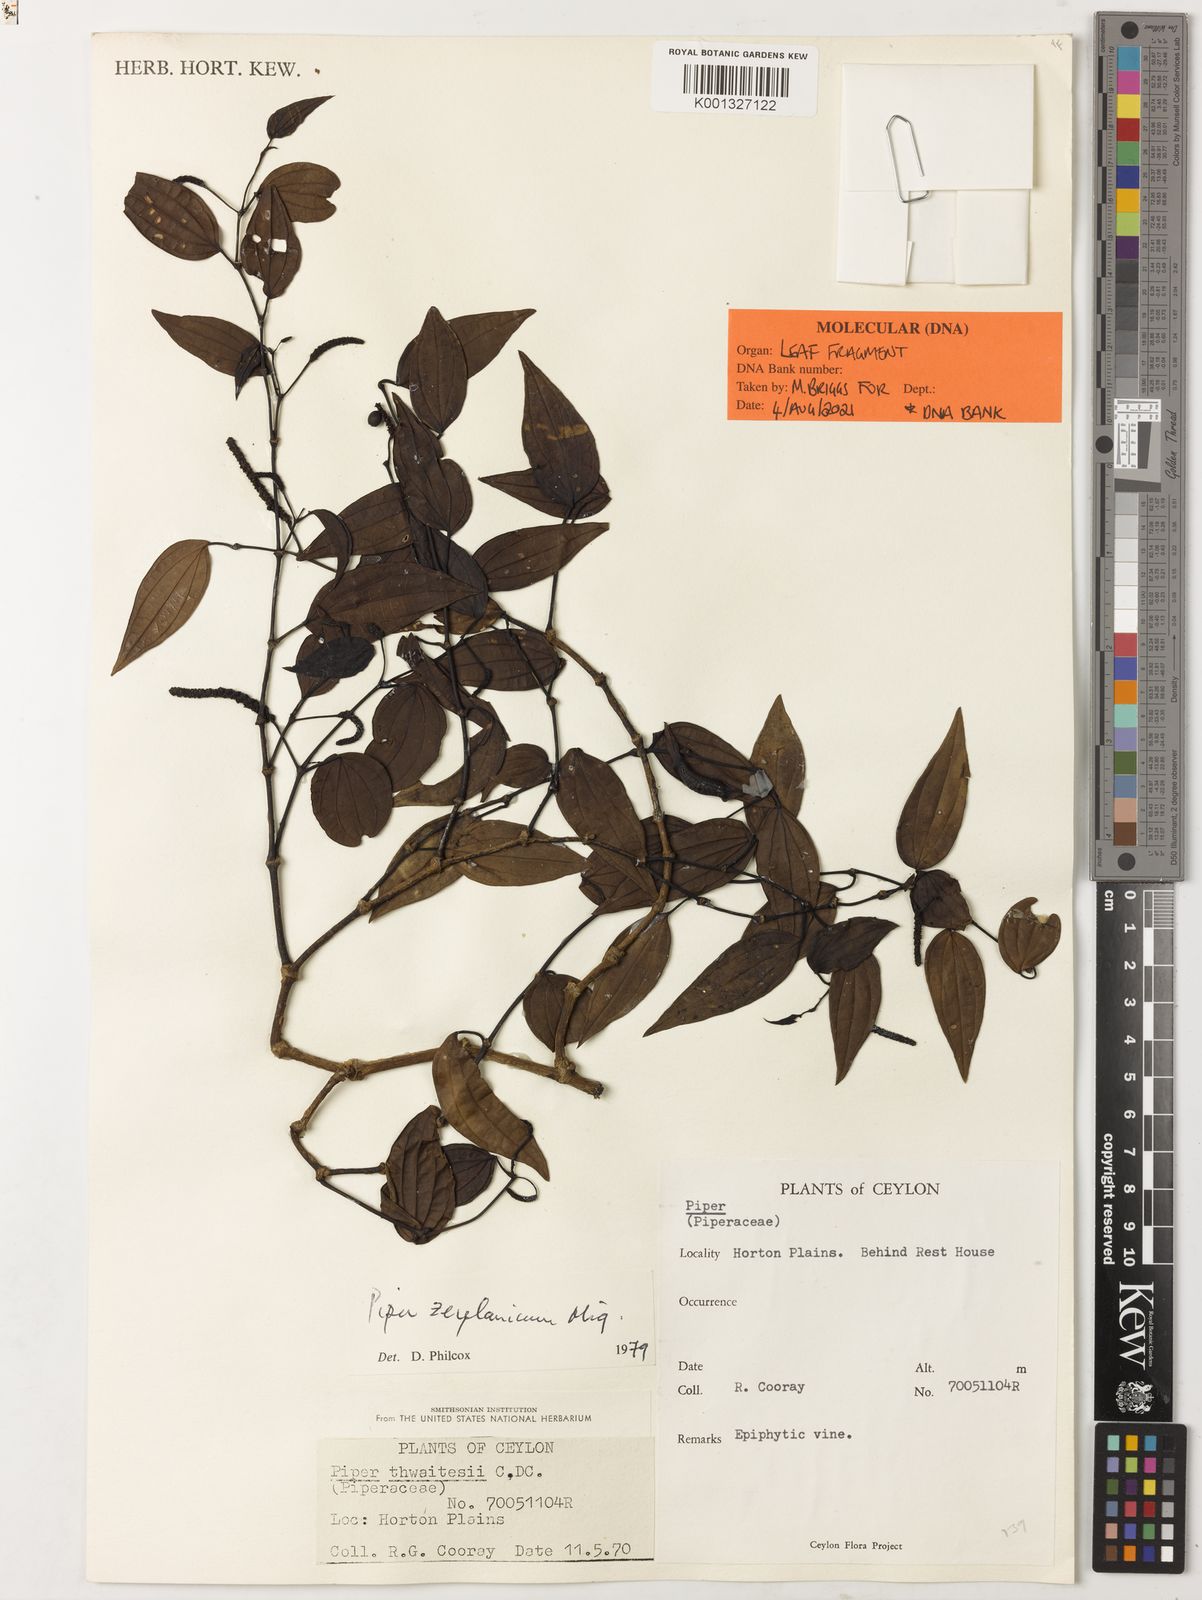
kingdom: Plantae
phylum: Tracheophyta
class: Magnoliopsida
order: Piperales
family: Piperaceae
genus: Piper
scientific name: Piper zeylanicum
